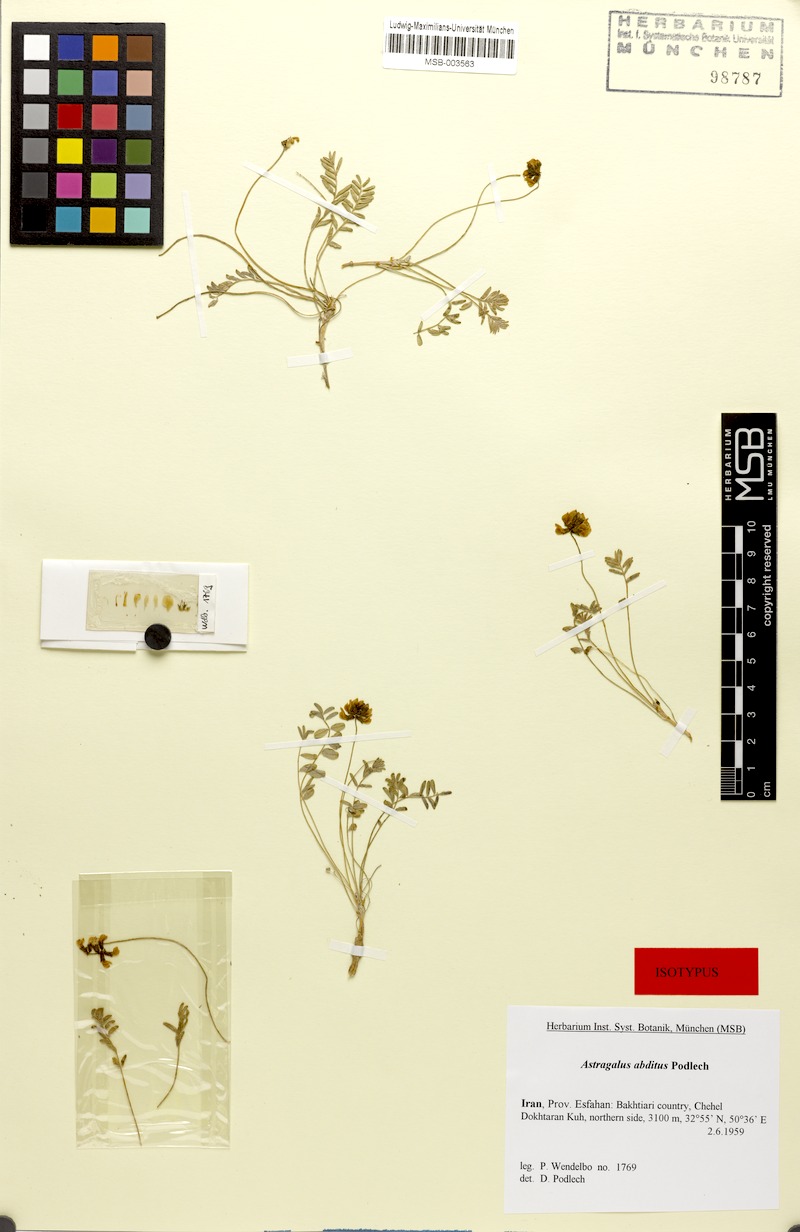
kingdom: Plantae
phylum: Tracheophyta
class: Magnoliopsida
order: Fabales
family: Fabaceae
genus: Astragalus
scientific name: Astragalus yazdii
